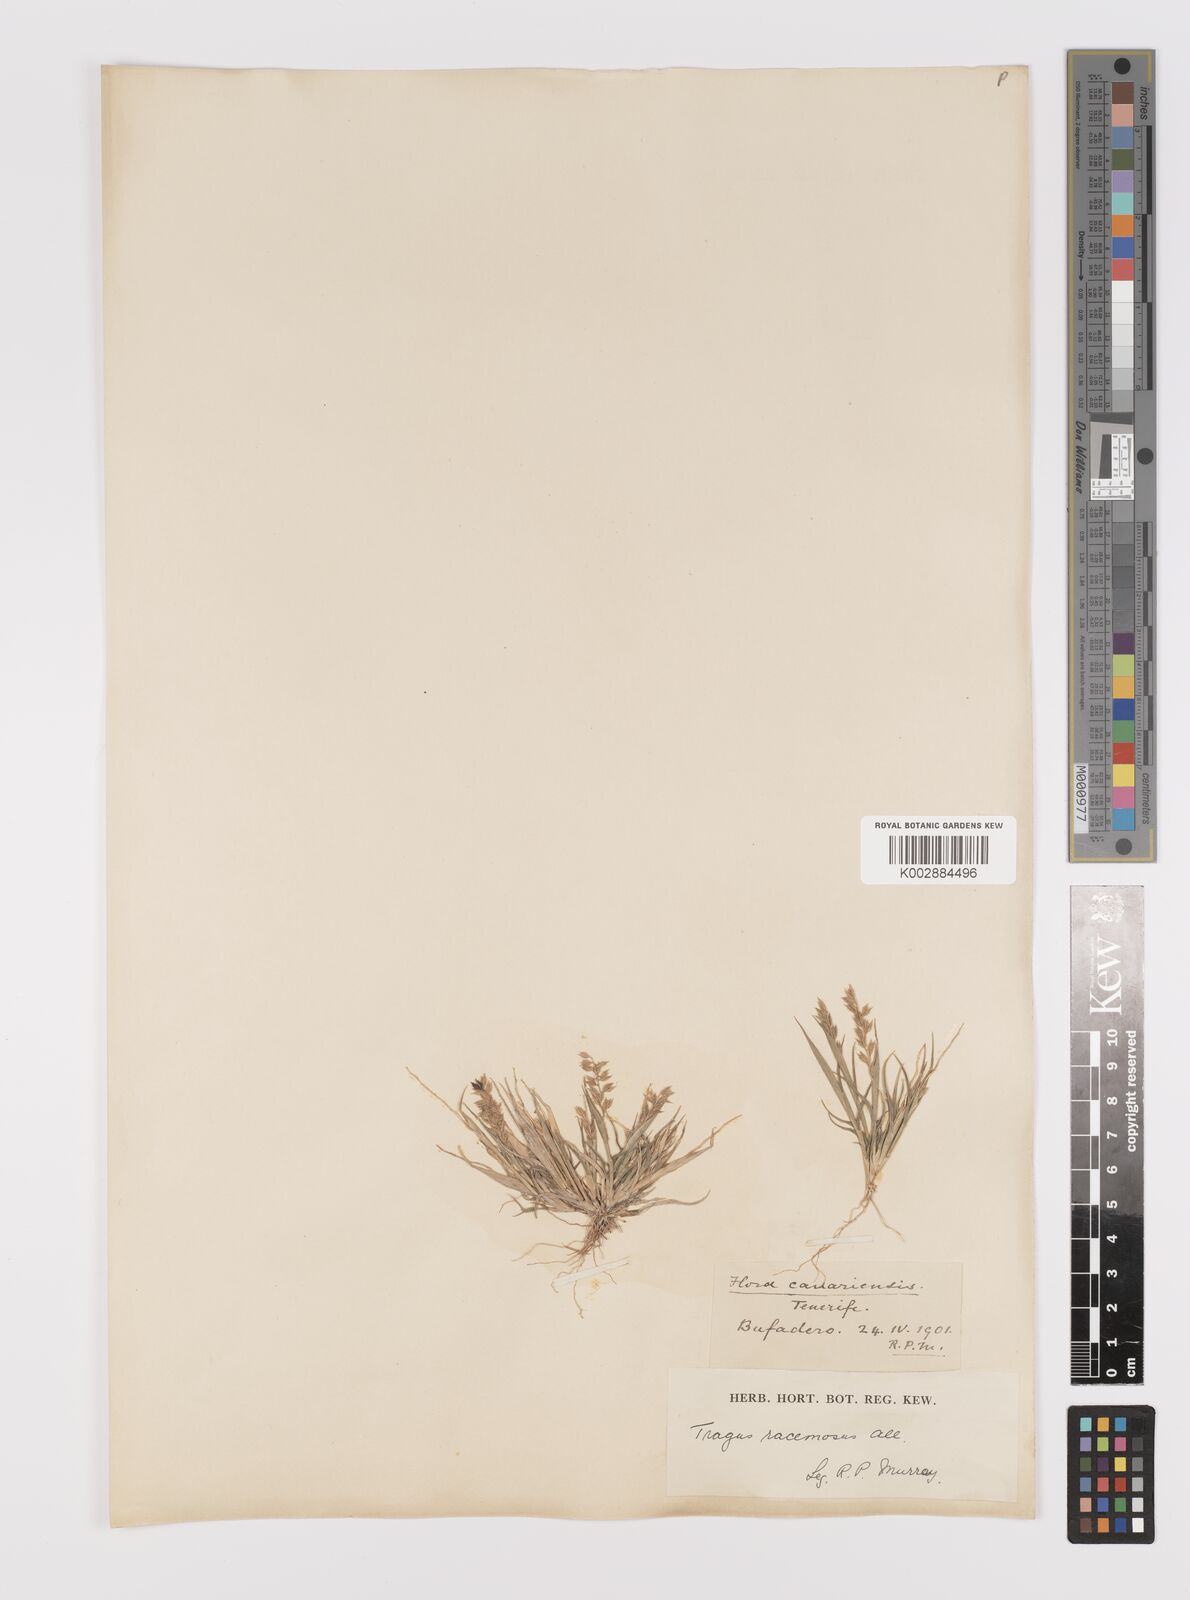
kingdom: Plantae
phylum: Tracheophyta
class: Liliopsida
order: Poales
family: Poaceae
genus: Tragus
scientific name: Tragus racemosus
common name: European bur-grass
